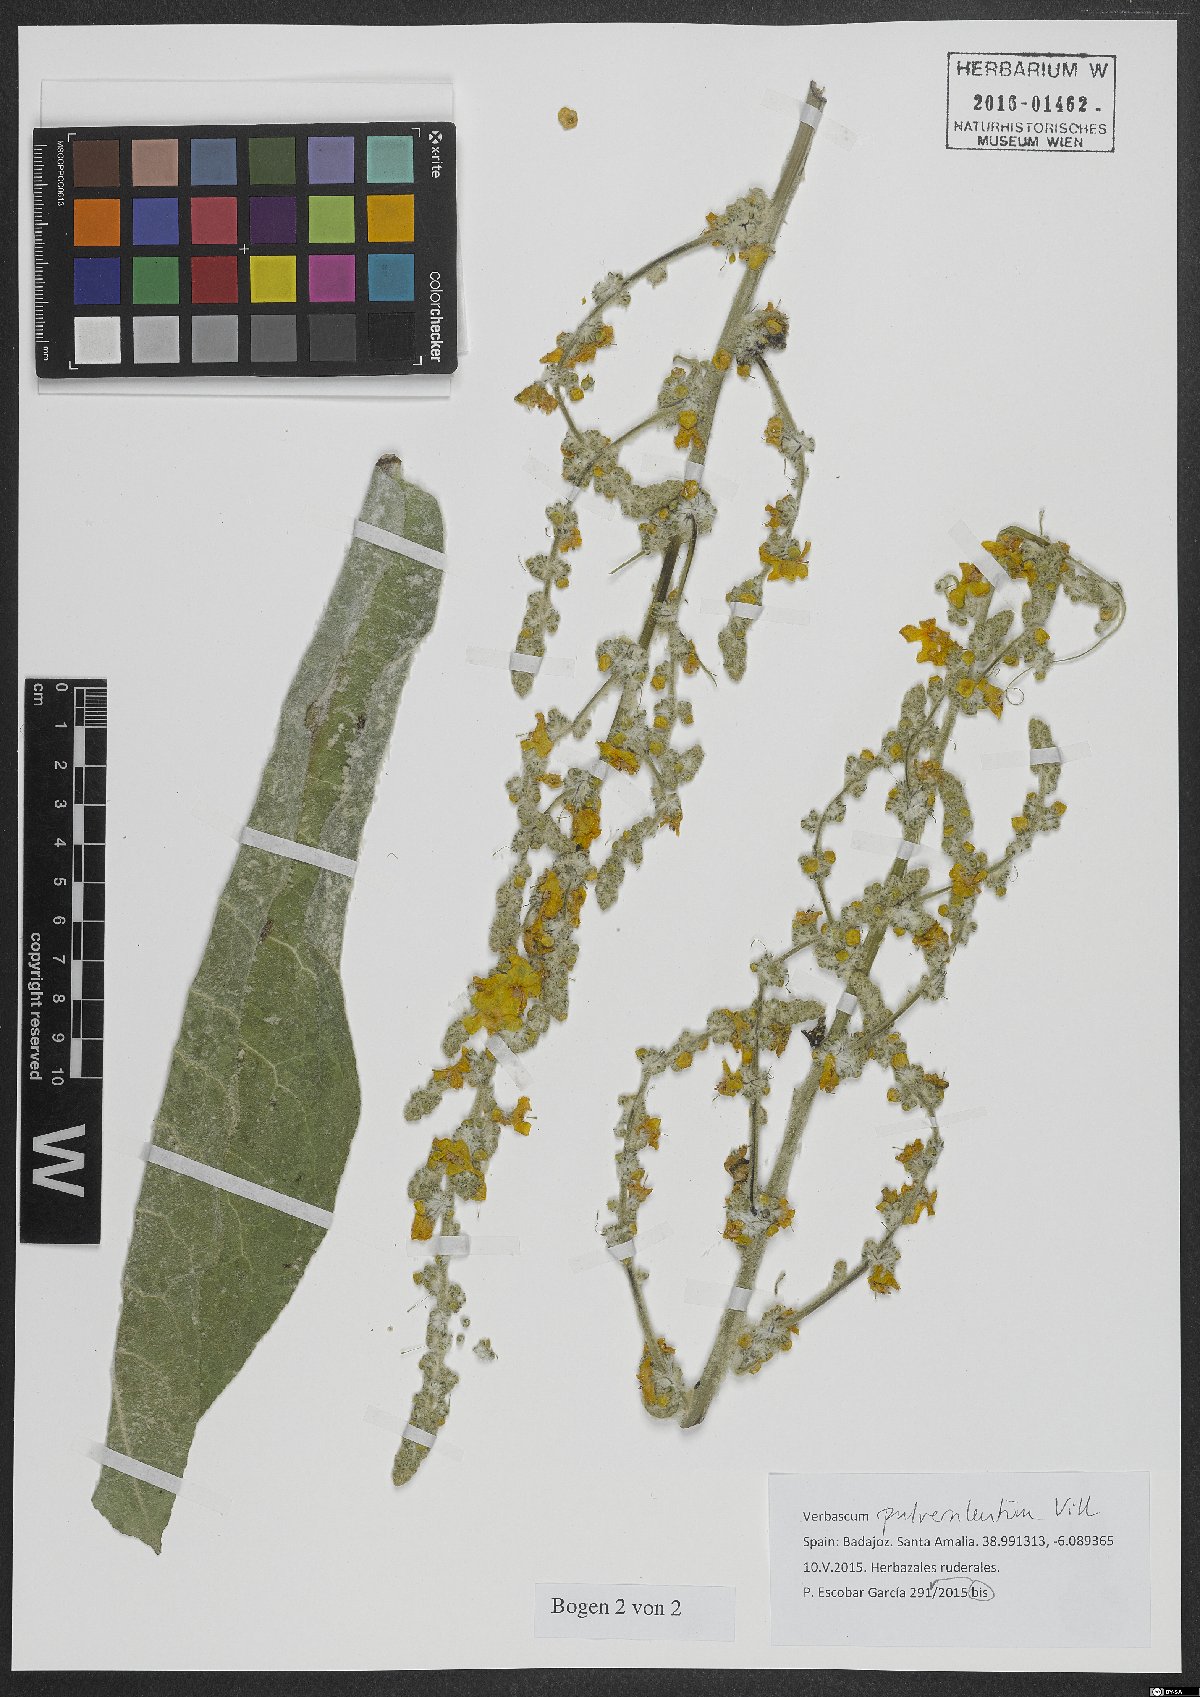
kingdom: Plantae
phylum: Tracheophyta
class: Magnoliopsida
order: Lamiales
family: Scrophulariaceae
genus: Verbascum
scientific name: Verbascum pulverulentum
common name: Broad-leaf mullein
